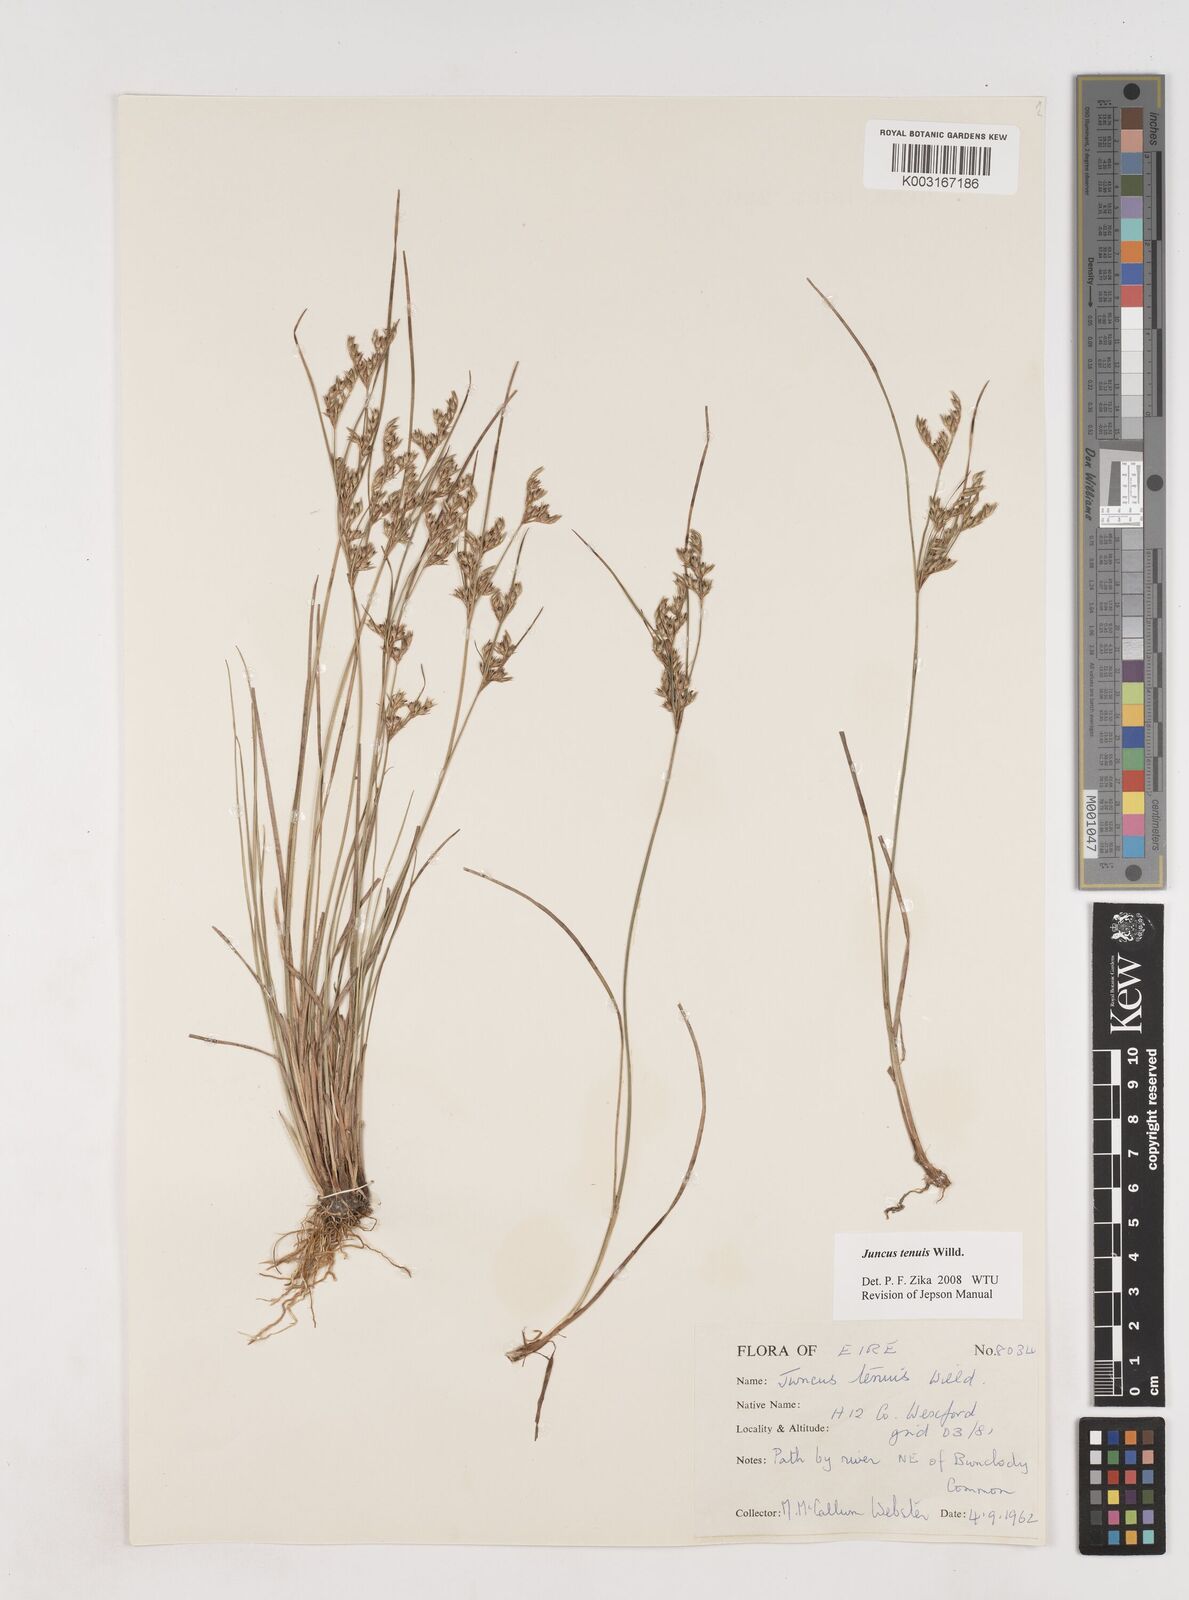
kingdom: Plantae
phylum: Tracheophyta
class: Liliopsida
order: Poales
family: Juncaceae
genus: Juncus
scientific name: Juncus tenuis
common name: Slender rush
